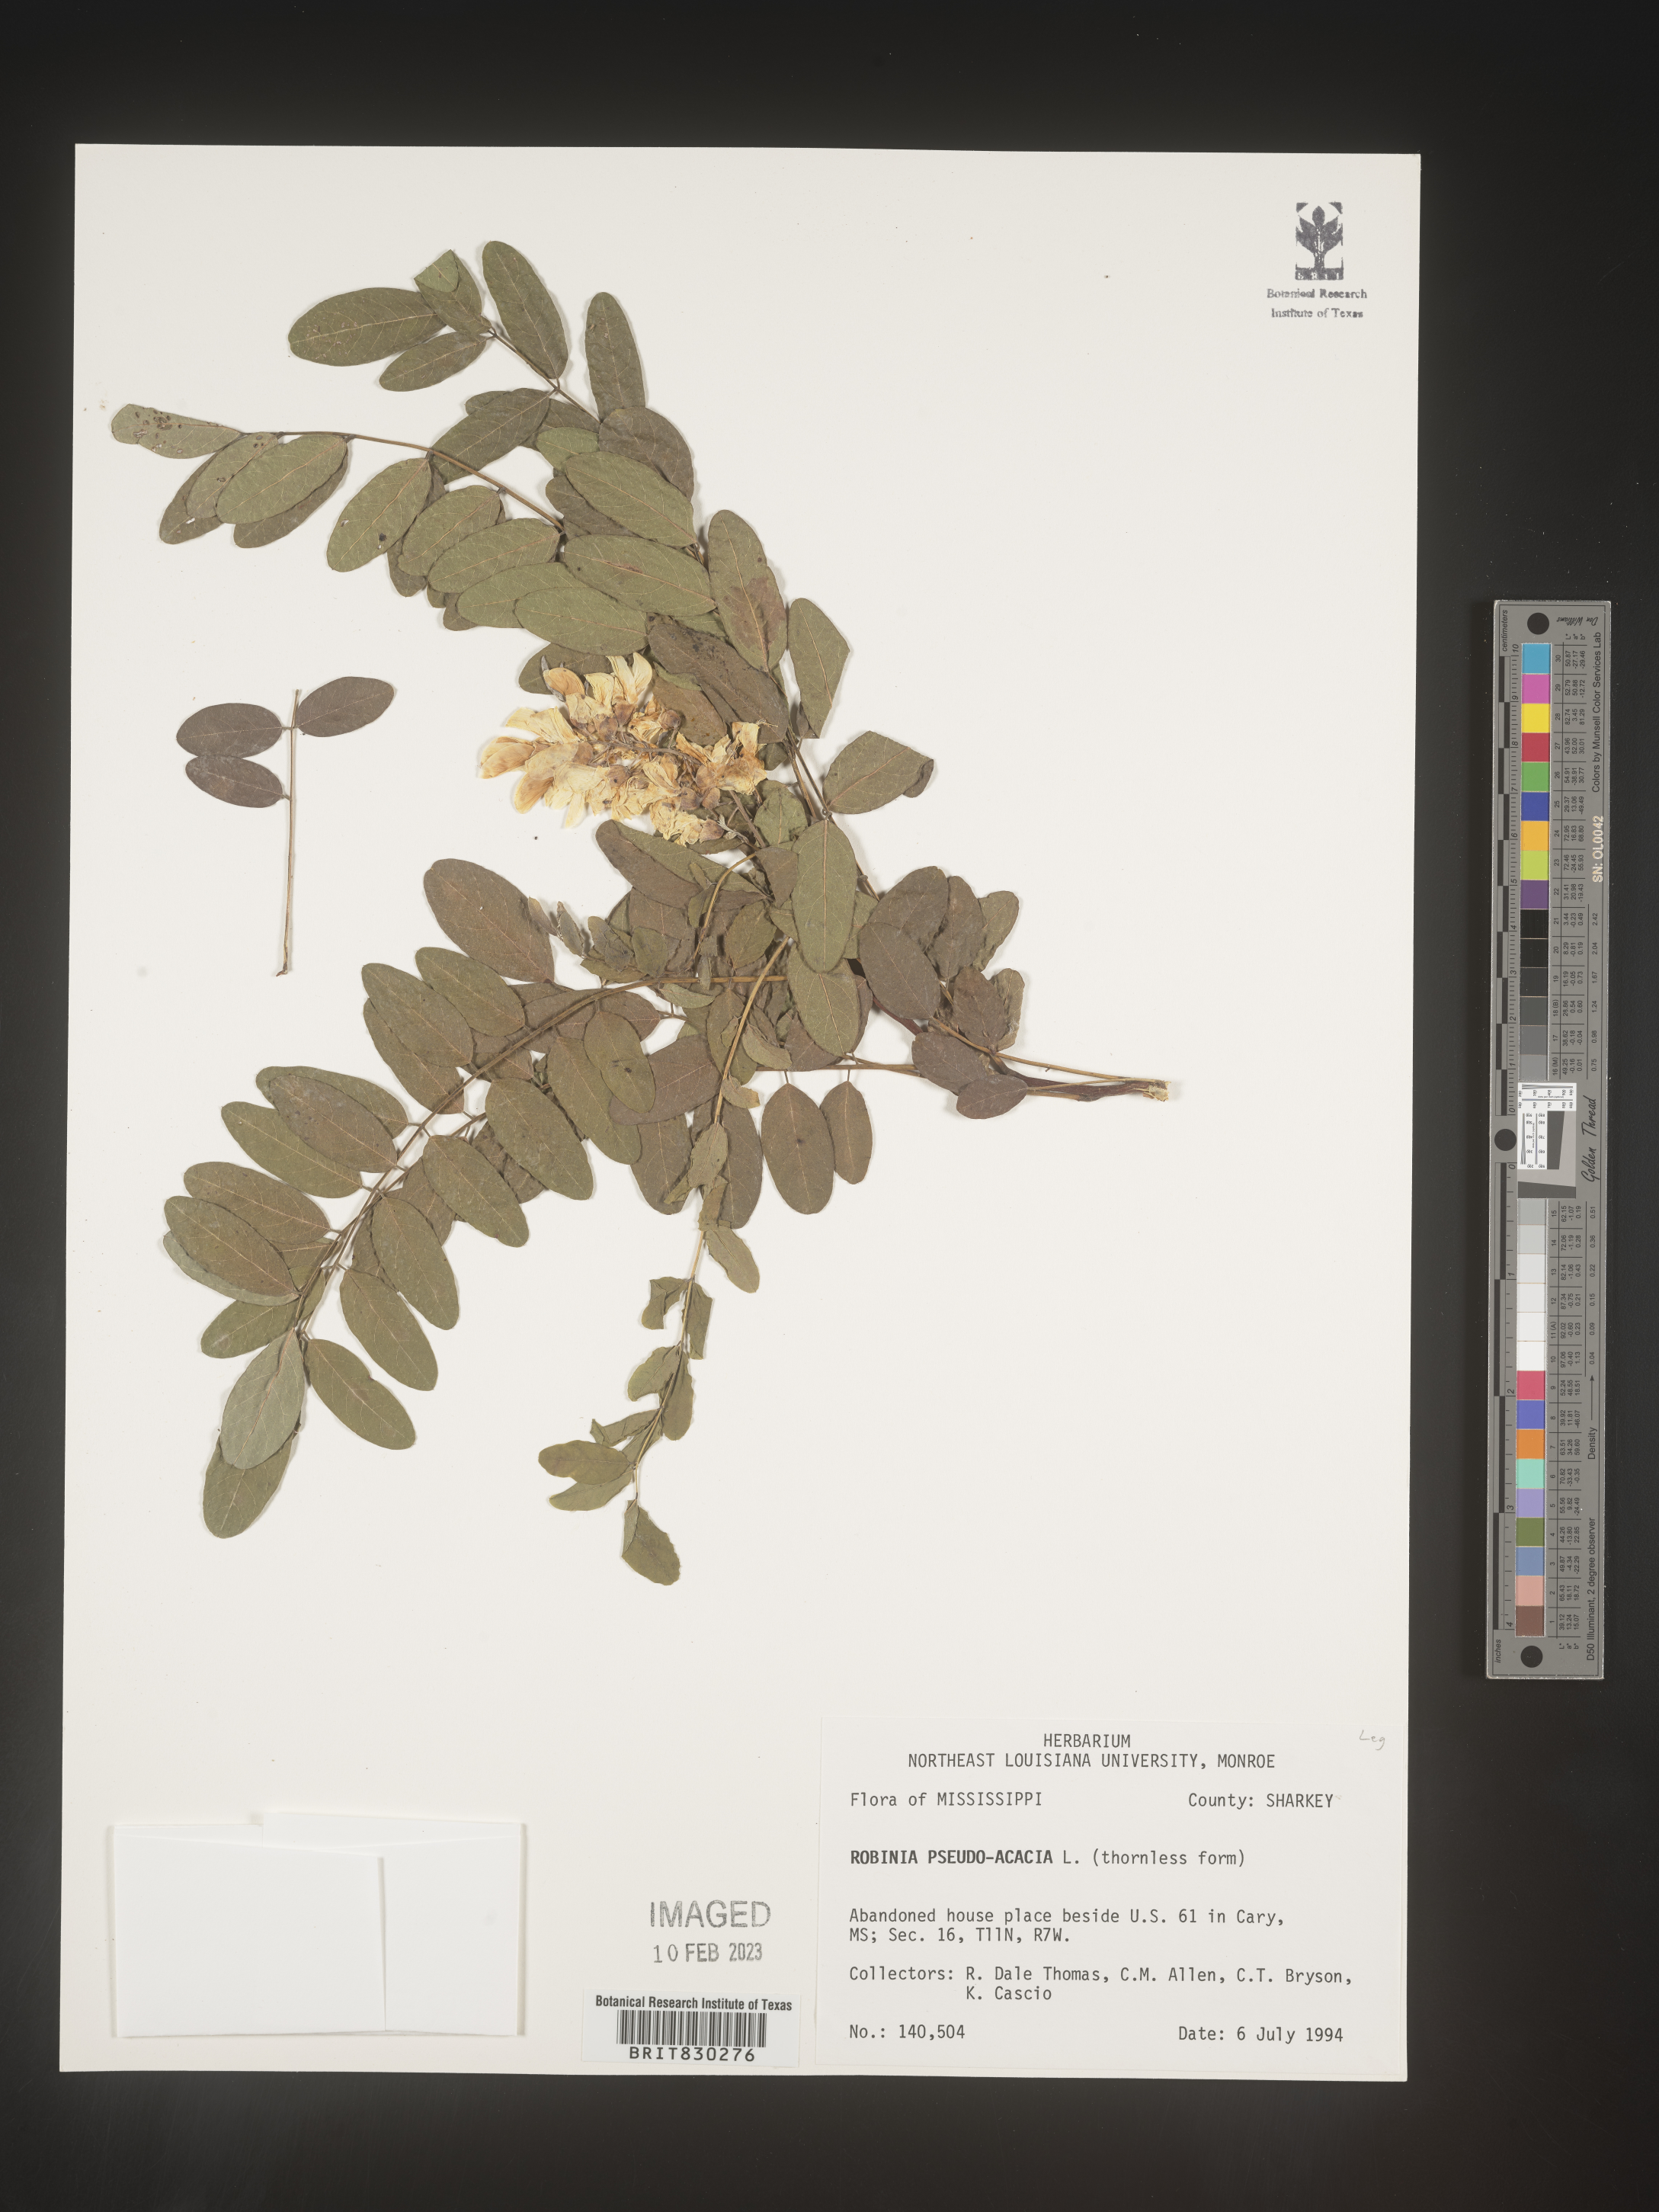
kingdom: Plantae
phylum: Tracheophyta
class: Magnoliopsida
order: Fabales
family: Fabaceae
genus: Robinia
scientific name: Robinia pseudoacacia
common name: Black locust
